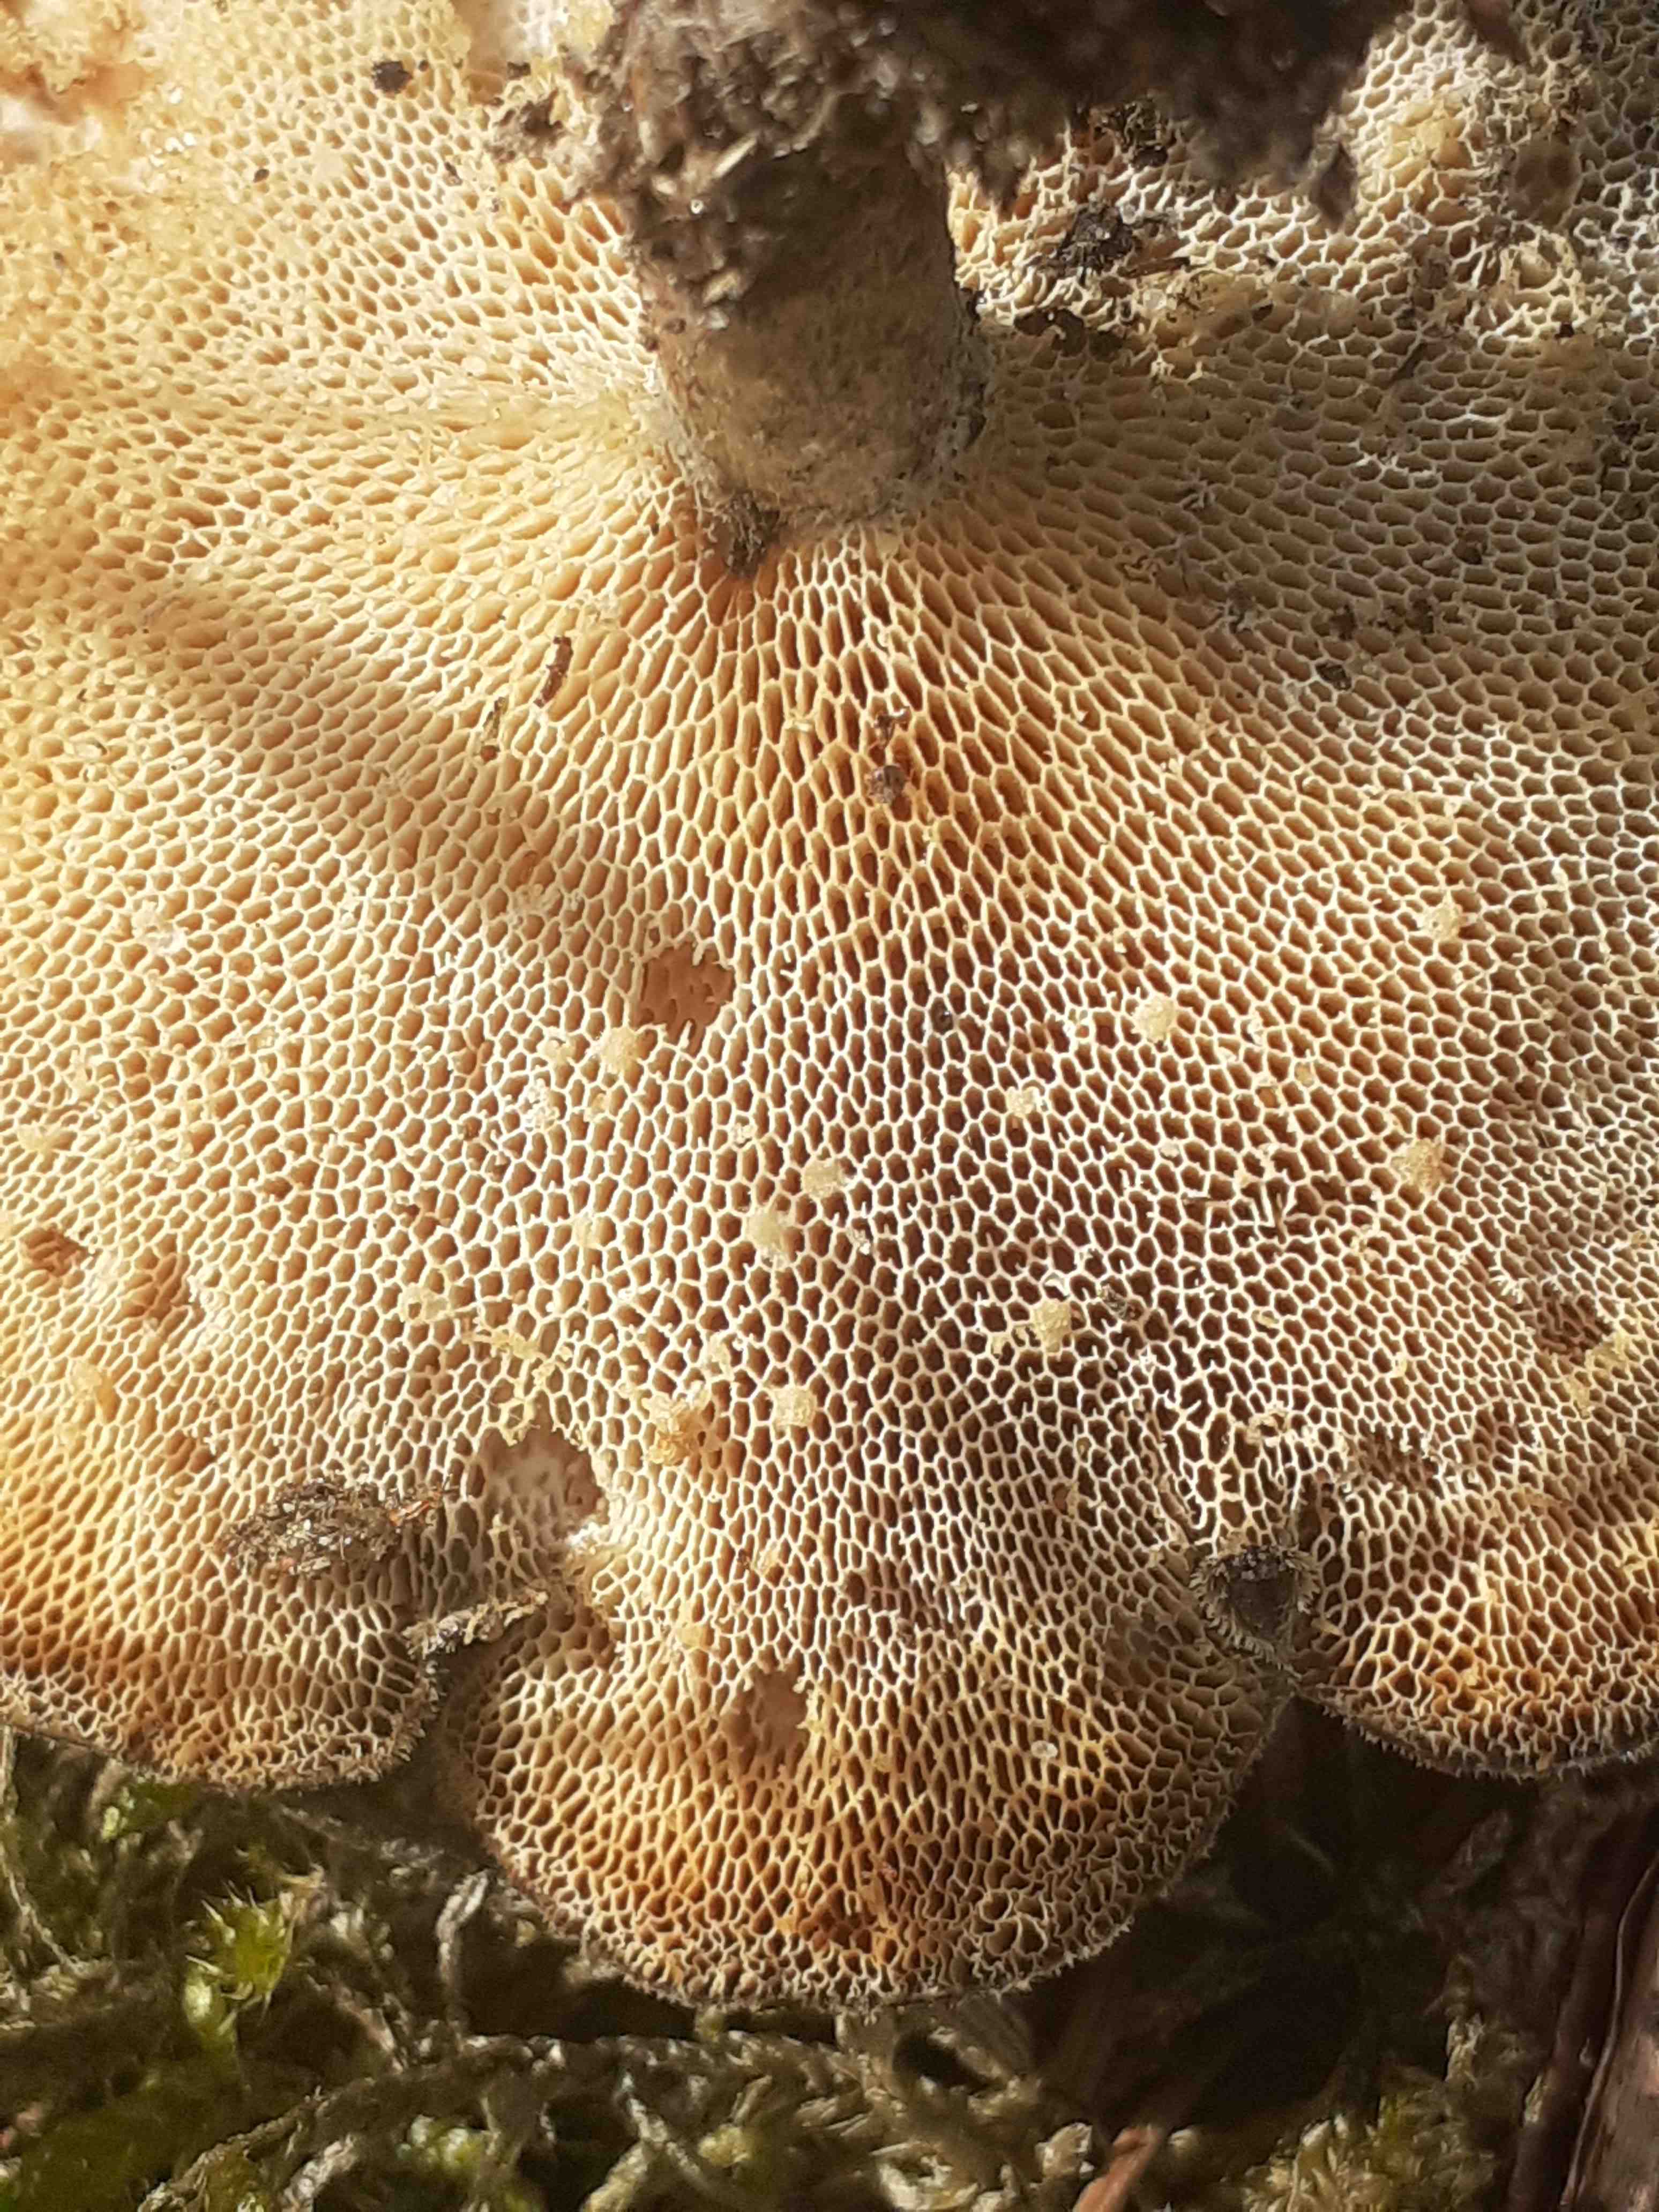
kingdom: Fungi
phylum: Basidiomycota
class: Agaricomycetes
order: Polyporales
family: Polyporaceae
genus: Lentinus
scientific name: Lentinus brumalis
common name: vinter-stilkporesvamp
